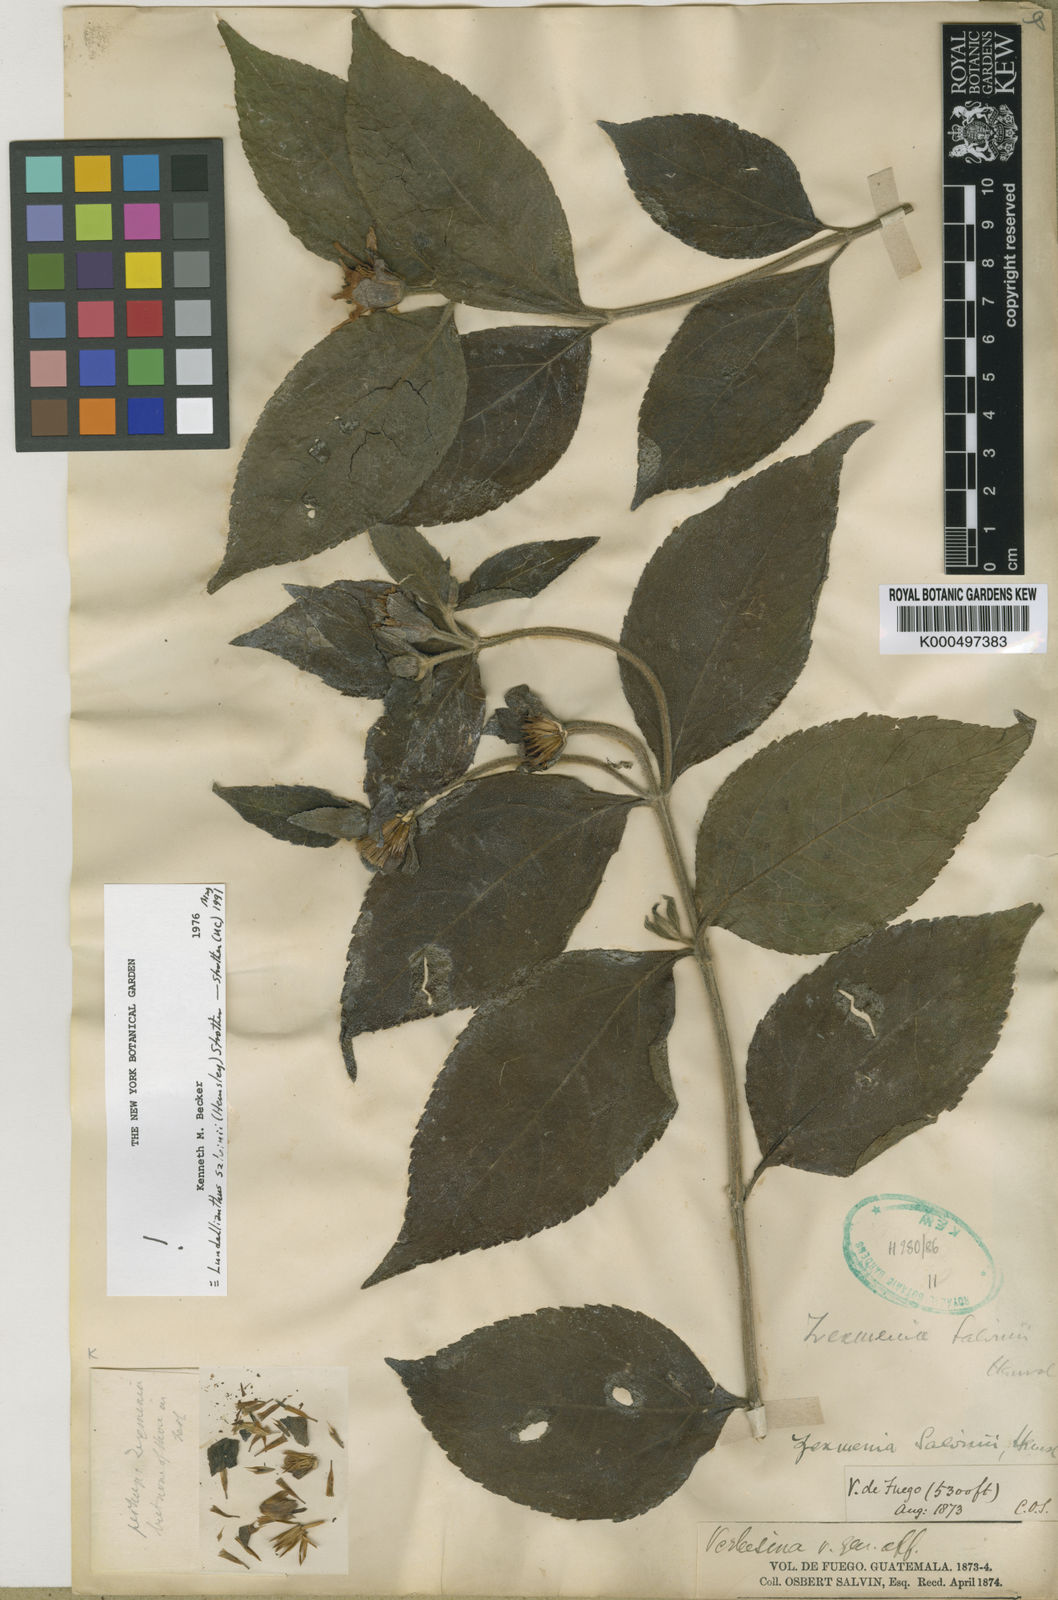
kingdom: Plantae
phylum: Tracheophyta
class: Magnoliopsida
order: Asterales
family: Asteraceae
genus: Lundellianthus
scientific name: Lundellianthus salvinii
